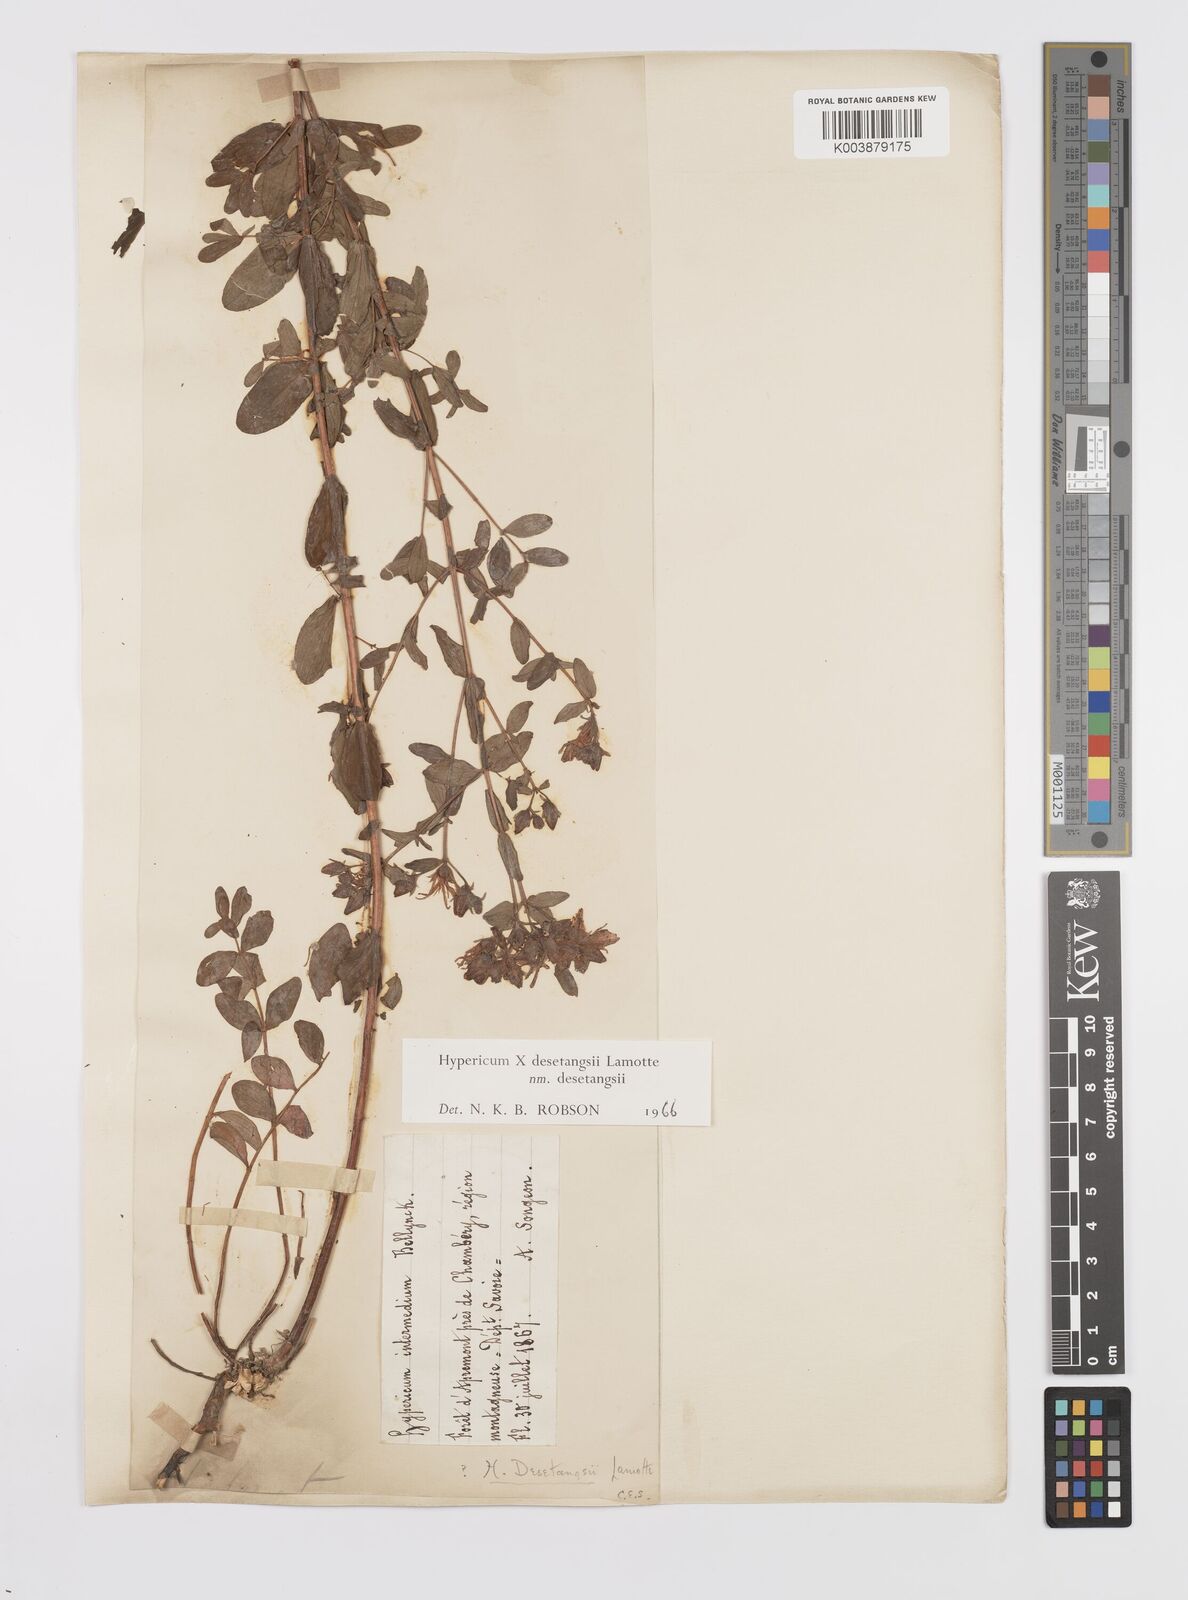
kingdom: Plantae
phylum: Tracheophyta
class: Magnoliopsida
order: Malpighiales
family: Hypericaceae
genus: Hypericum
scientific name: Hypericum desetangsii
